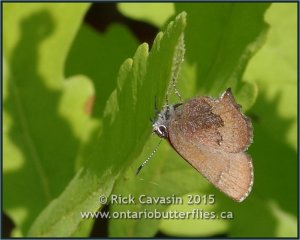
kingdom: Animalia
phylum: Arthropoda
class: Insecta
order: Lepidoptera
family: Lycaenidae
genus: Incisalia
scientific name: Incisalia irioides
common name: Brown Elfin
